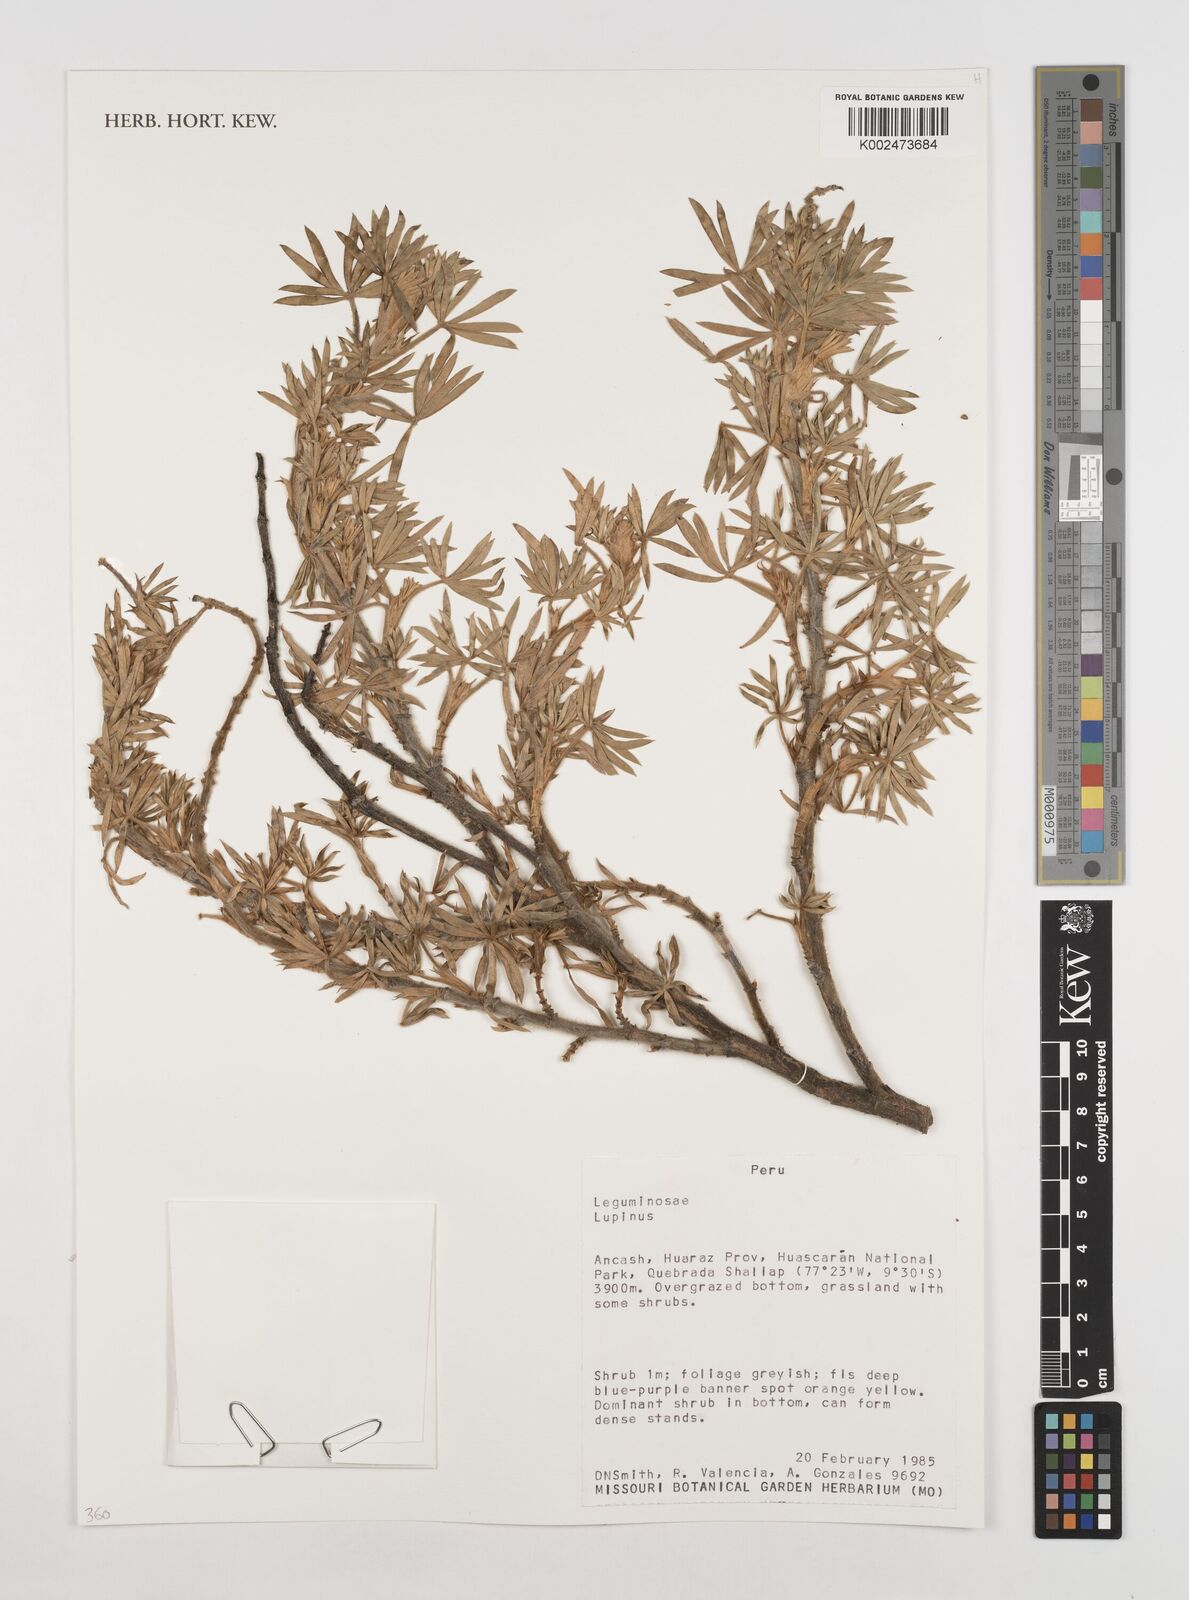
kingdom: Plantae
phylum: Tracheophyta
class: Magnoliopsida
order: Fabales
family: Fabaceae
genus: Lupinus
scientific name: Lupinus
